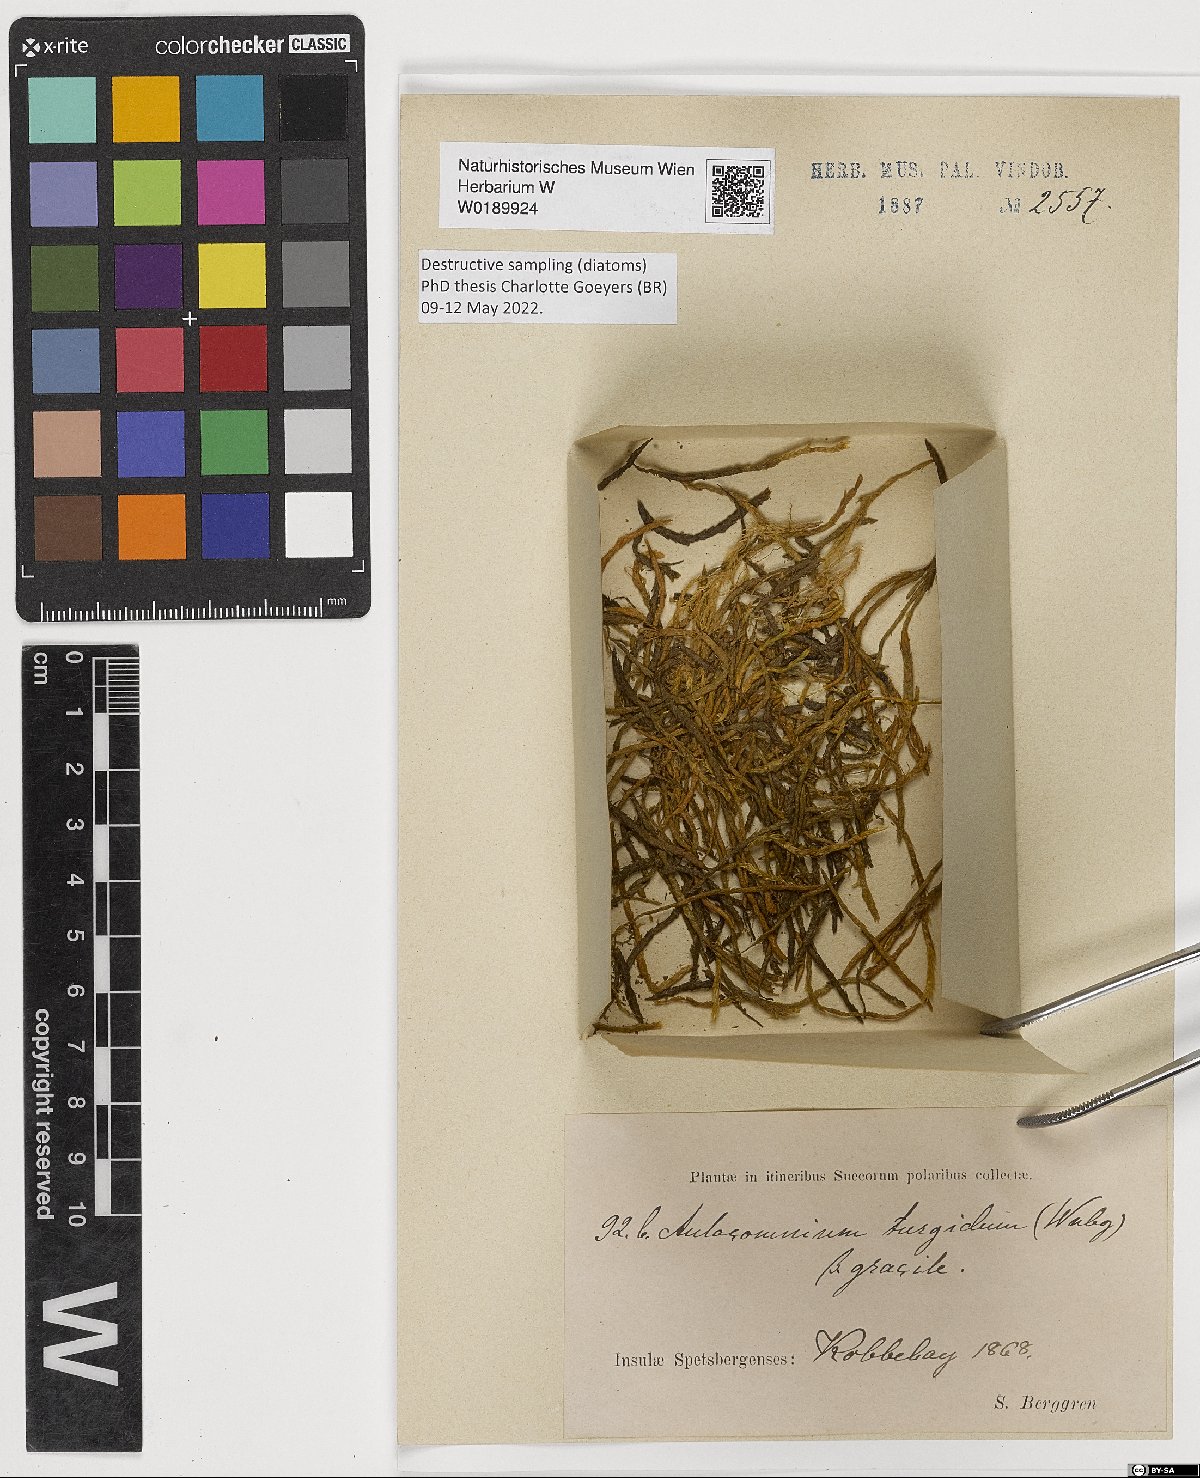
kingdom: Plantae
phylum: Bryophyta
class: Bryopsida
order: Aulacomniales
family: Aulacomniaceae
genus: Aulacomnium
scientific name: Aulacomnium turgidum
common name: Mountain groove moss
